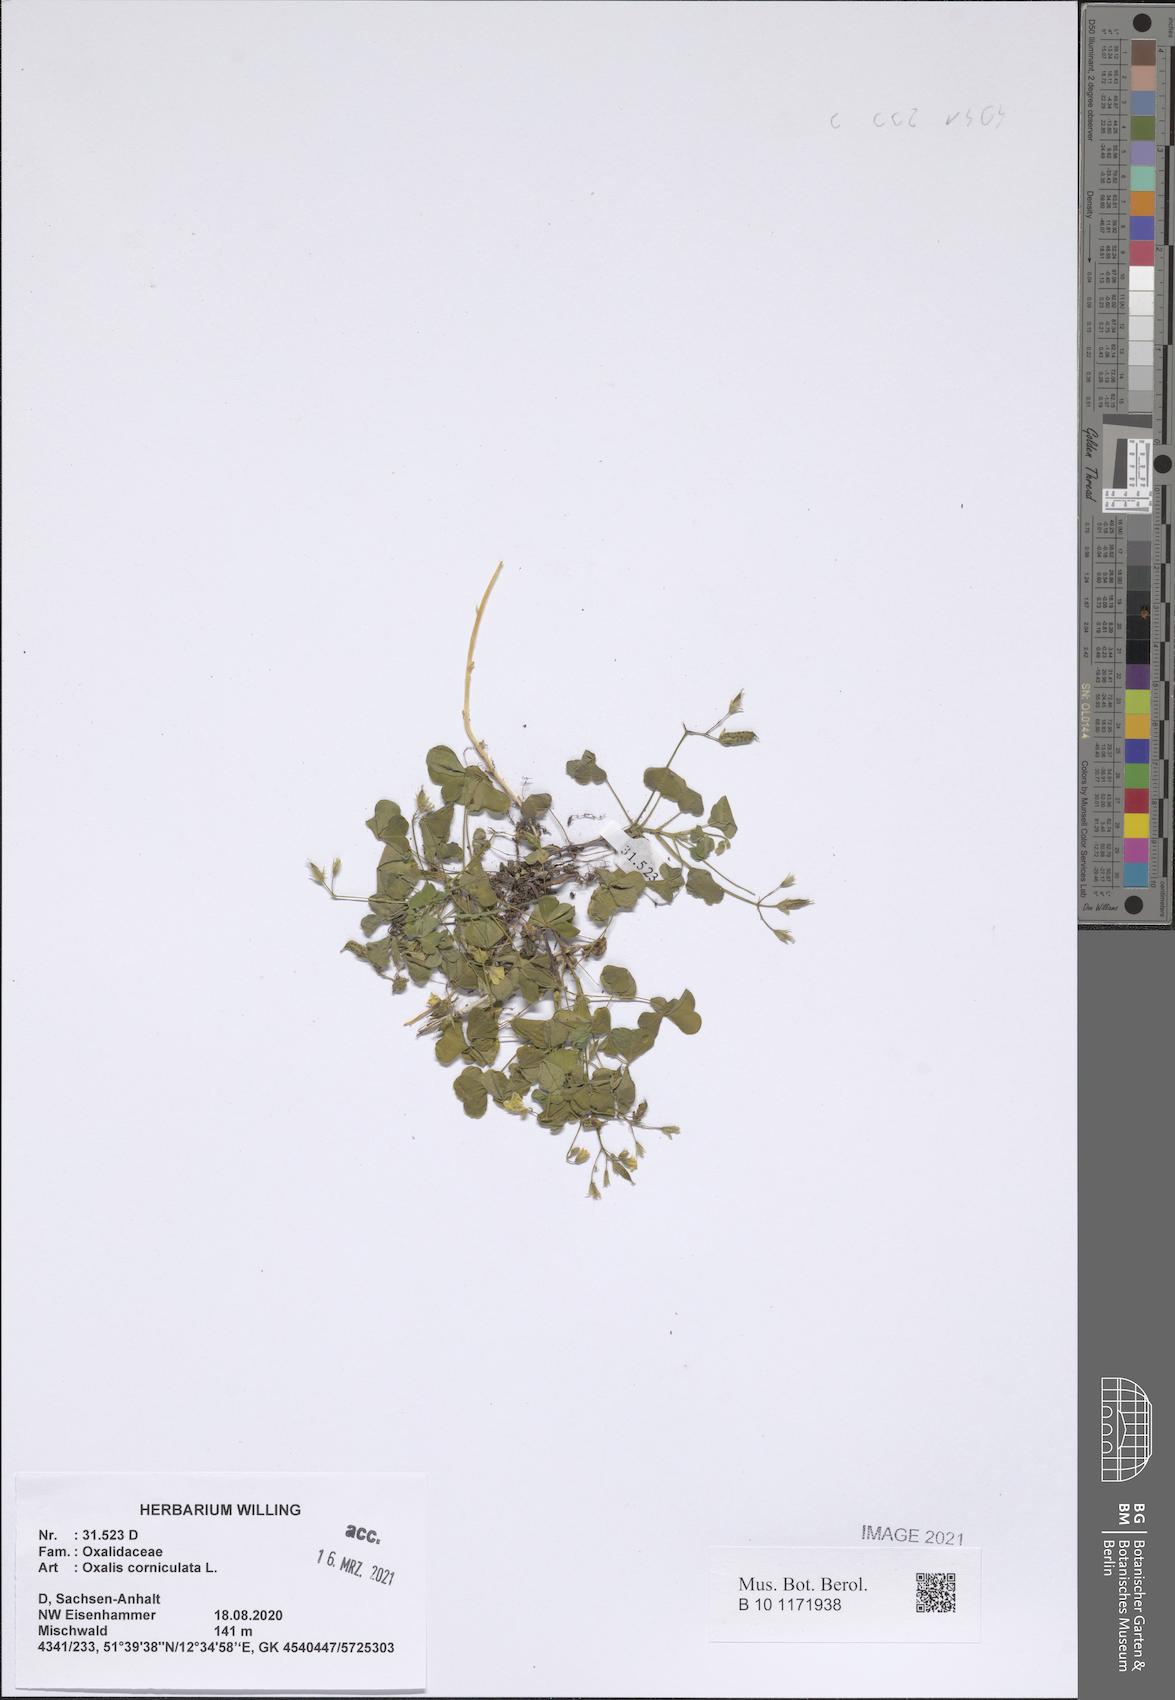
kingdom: Plantae
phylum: Tracheophyta
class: Magnoliopsida
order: Oxalidales
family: Oxalidaceae
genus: Oxalis
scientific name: Oxalis corniculata
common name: Procumbent yellow-sorrel
